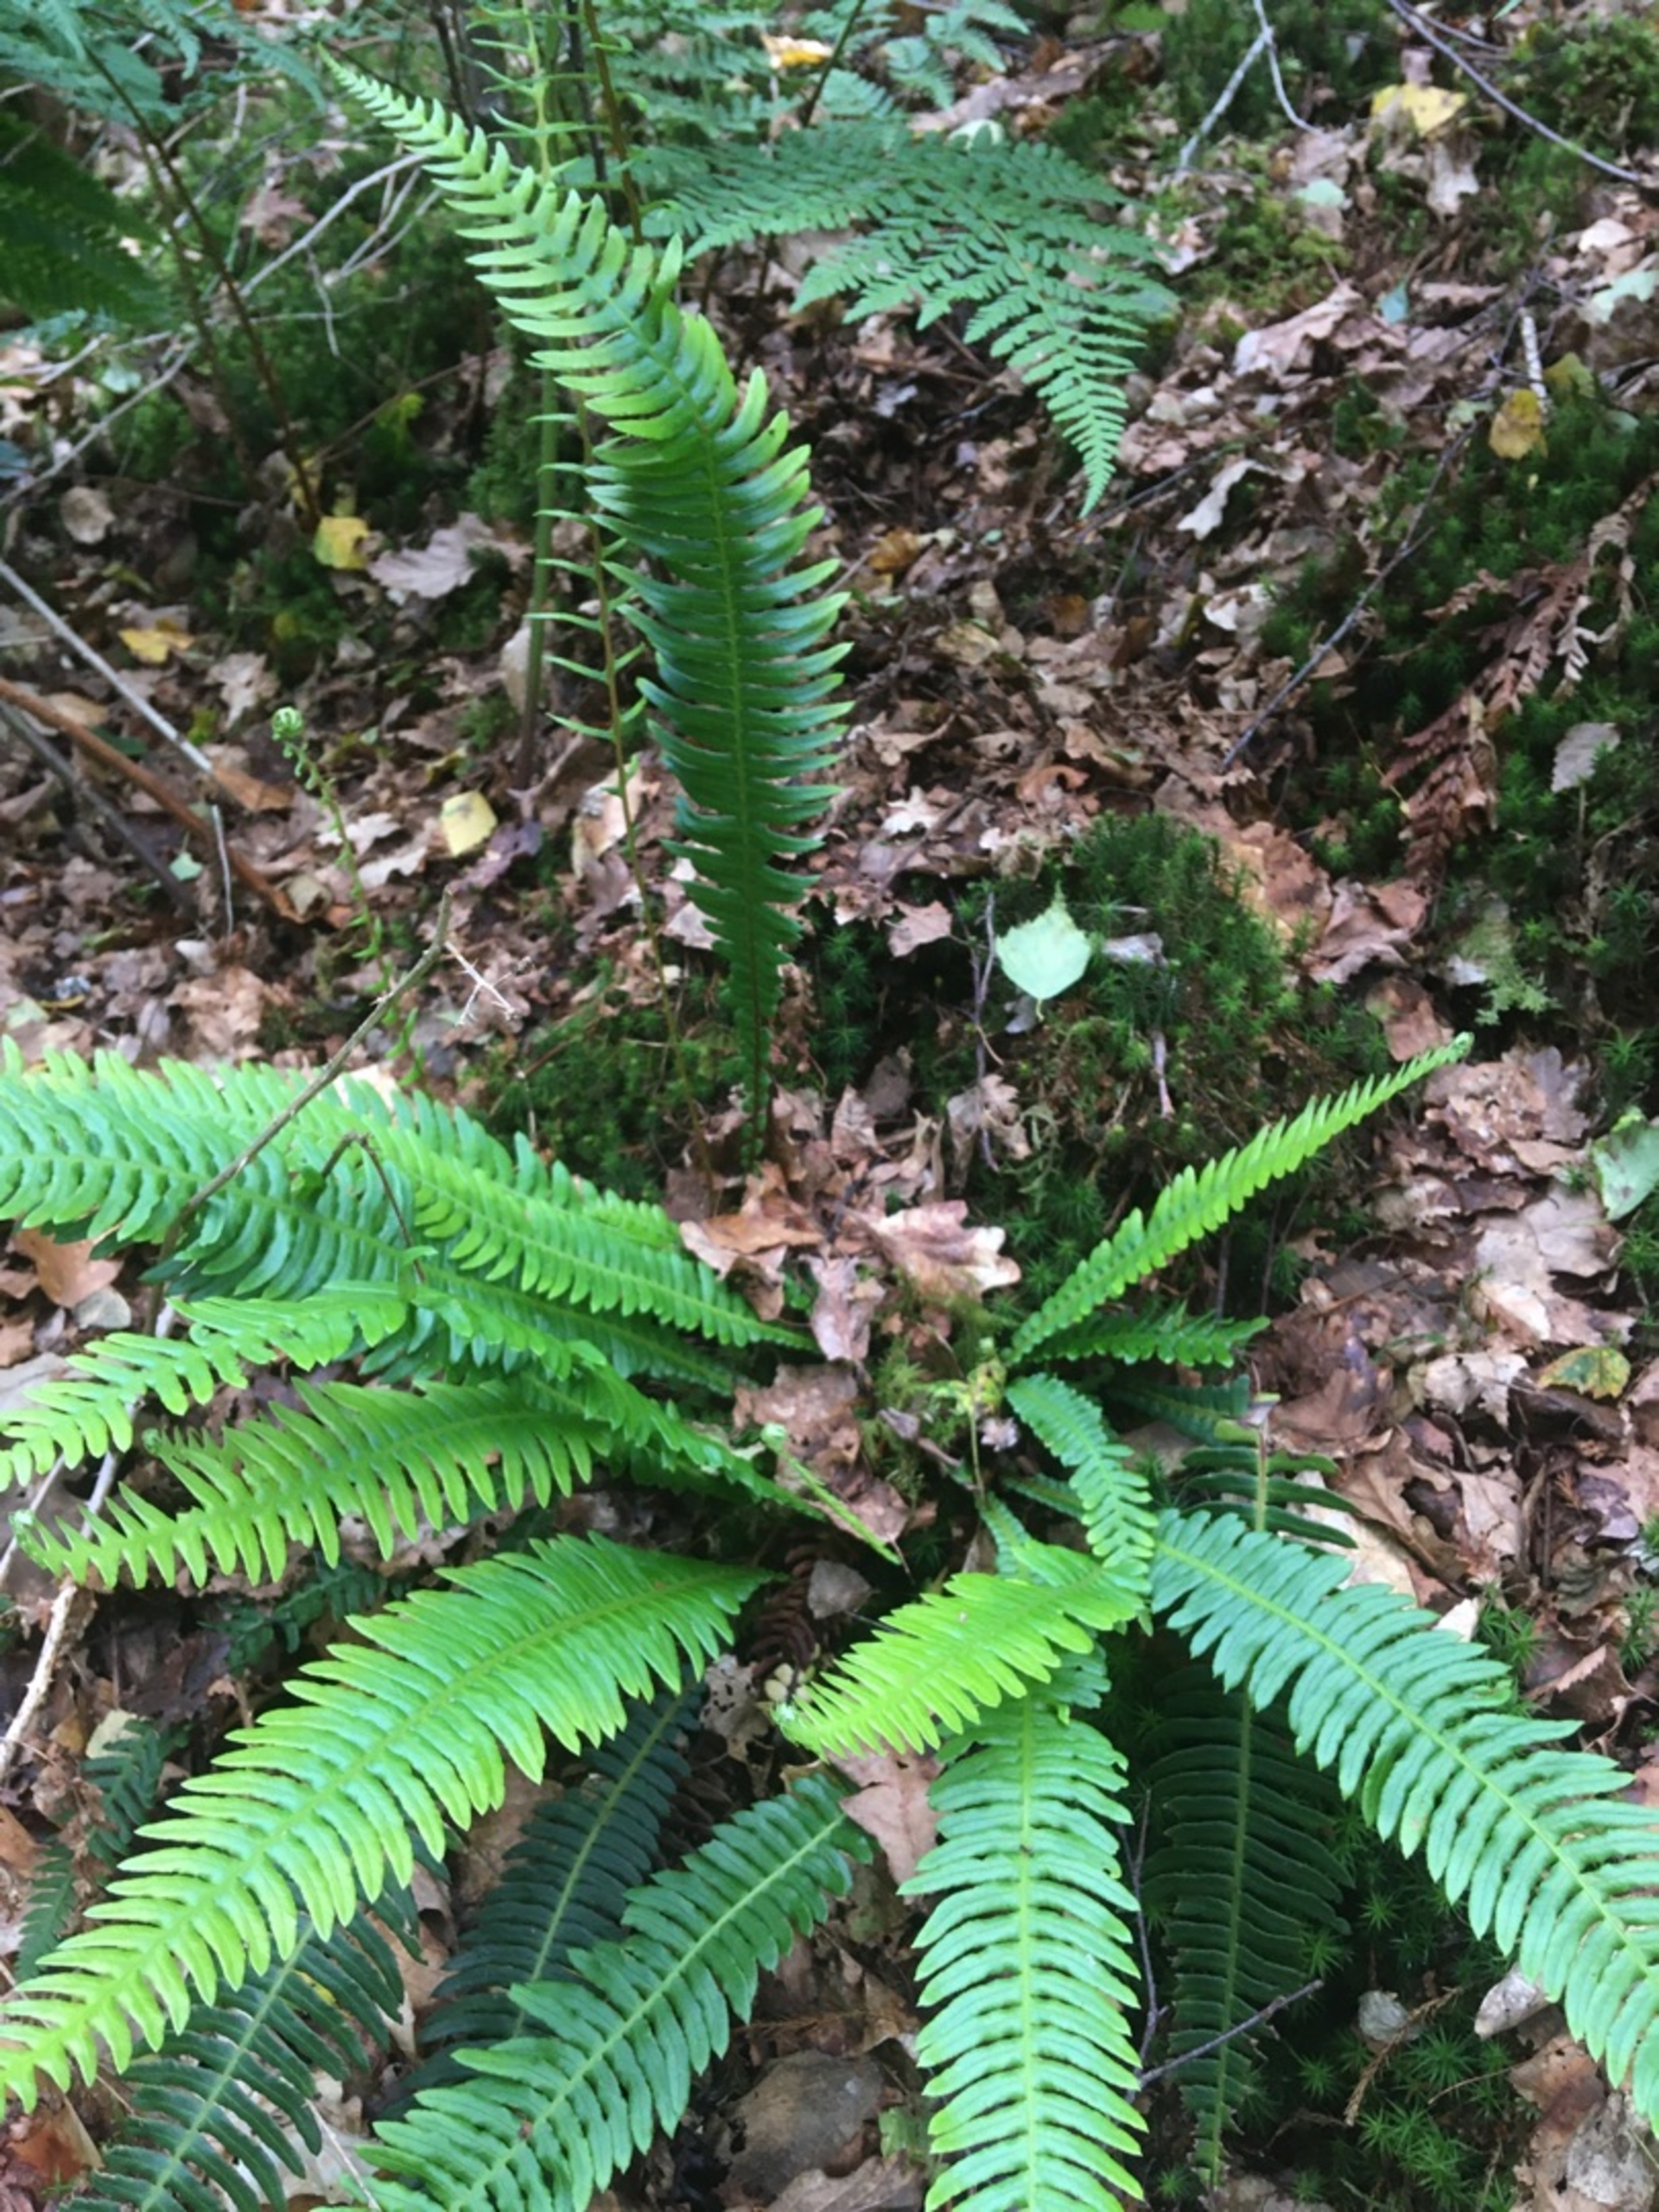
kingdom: Plantae
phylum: Tracheophyta
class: Polypodiopsida
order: Polypodiales
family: Blechnaceae
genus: Struthiopteris
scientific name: Struthiopteris spicant
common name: Kambregne
